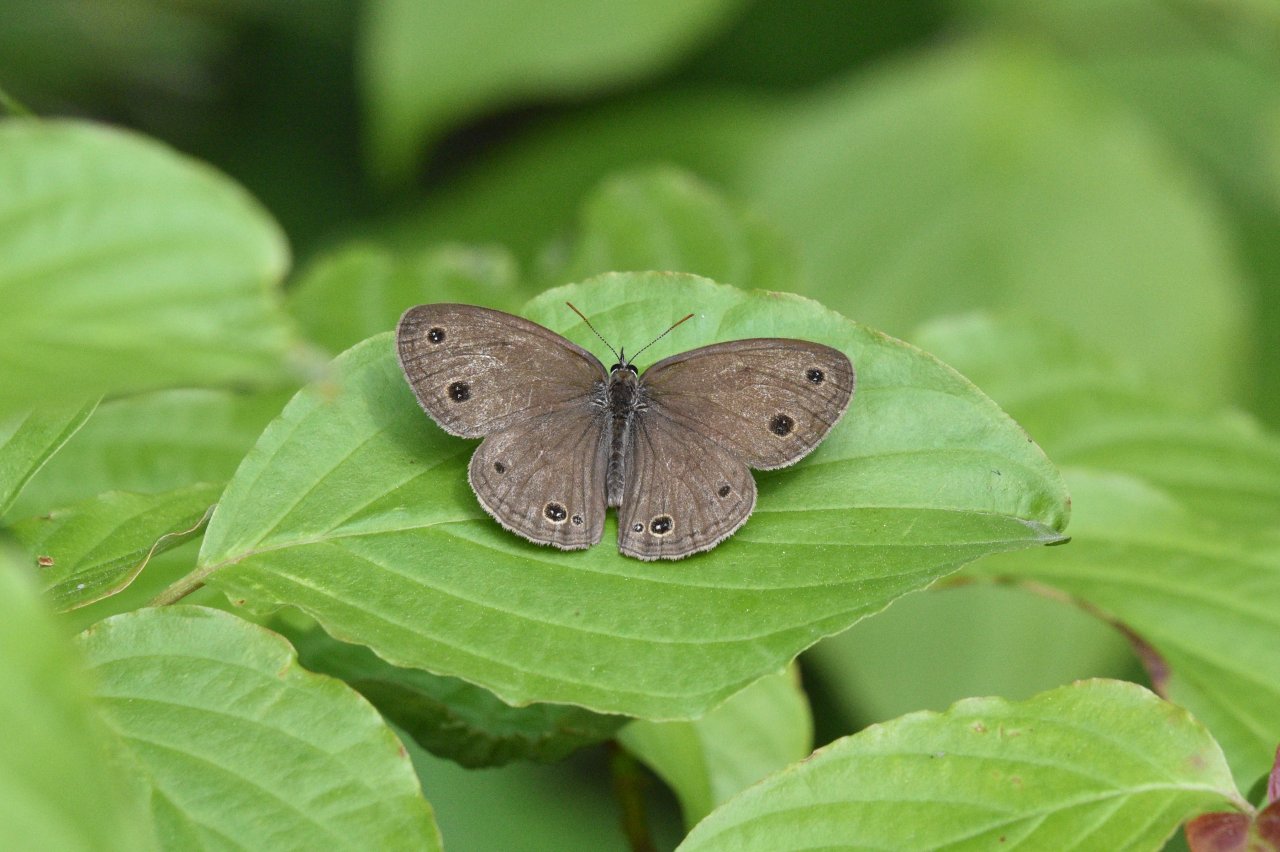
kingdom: Animalia
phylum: Arthropoda
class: Insecta
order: Lepidoptera
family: Nymphalidae
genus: Euptychia
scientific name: Euptychia cymela
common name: Little Wood Satyr
